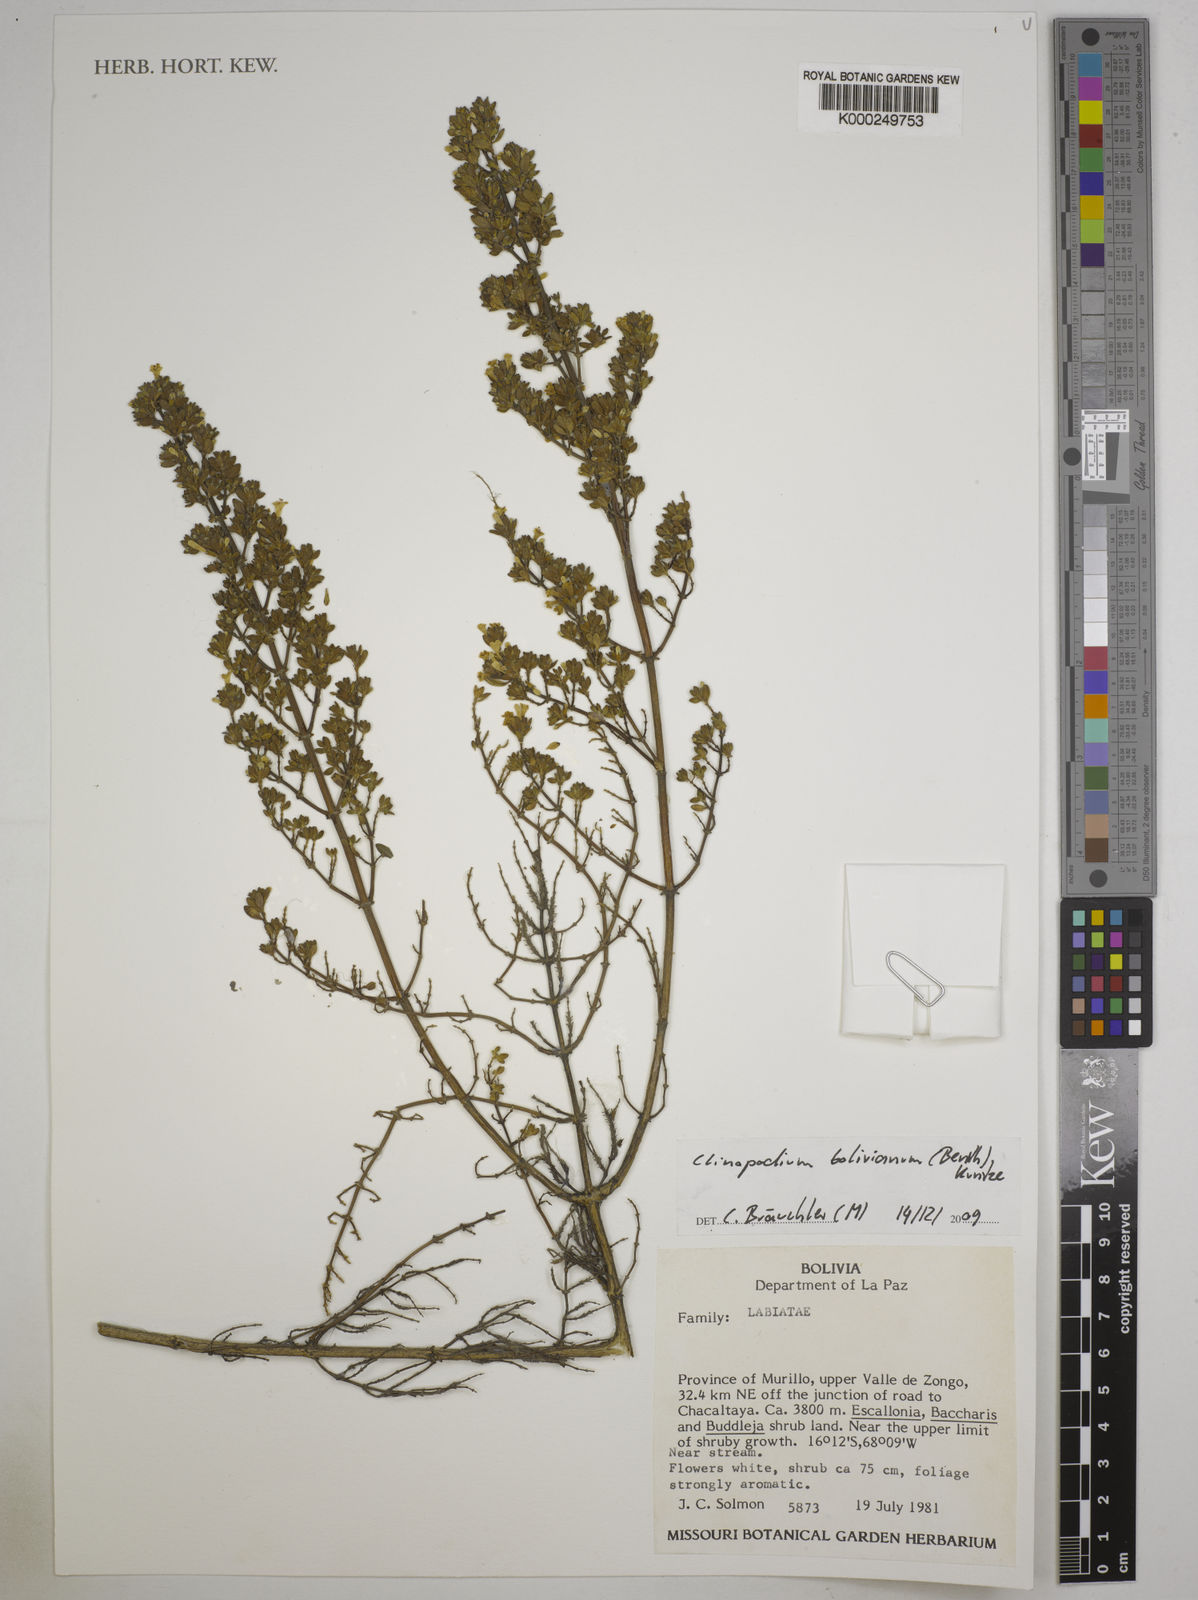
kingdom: Plantae
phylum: Tracheophyta
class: Magnoliopsida
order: Lamiales
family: Lamiaceae
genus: Clinopodium
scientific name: Clinopodium bolivianum
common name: Inca muña
